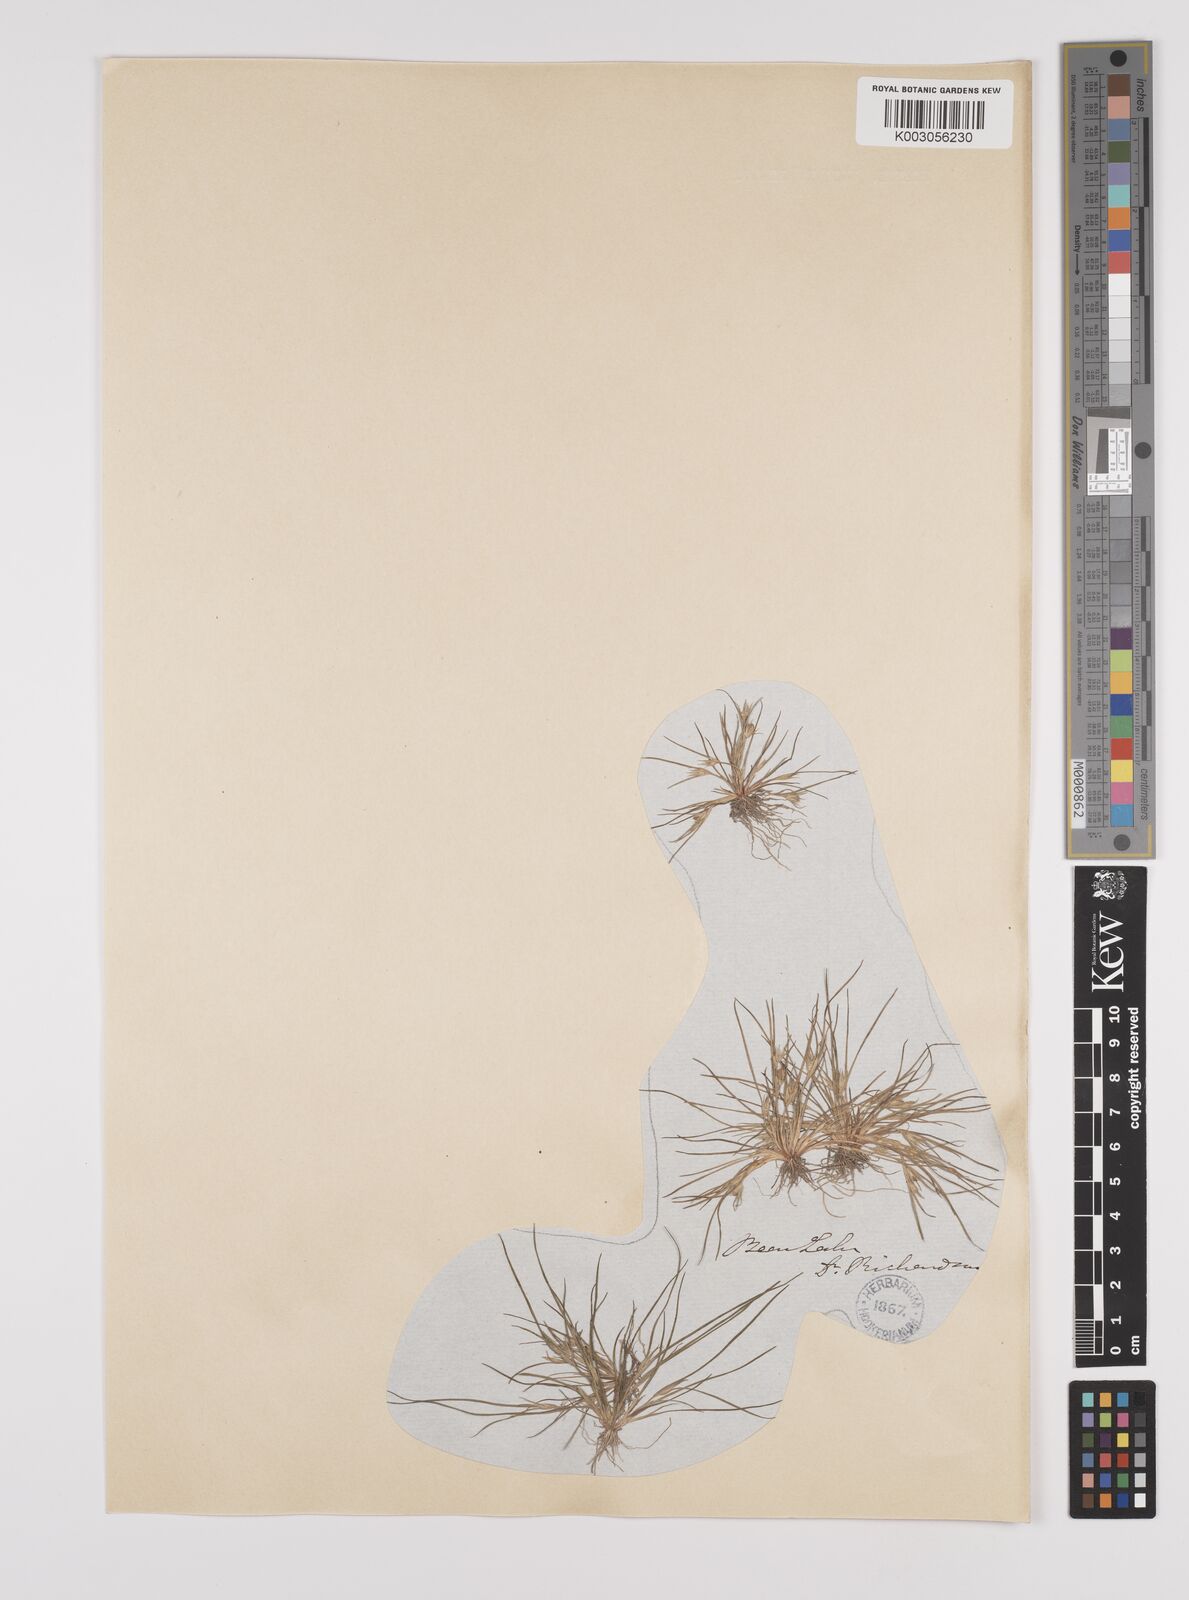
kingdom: Plantae
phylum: Tracheophyta
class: Liliopsida
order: Poales
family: Juncaceae
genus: Juncus
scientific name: Juncus bufonius
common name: Toad rush
